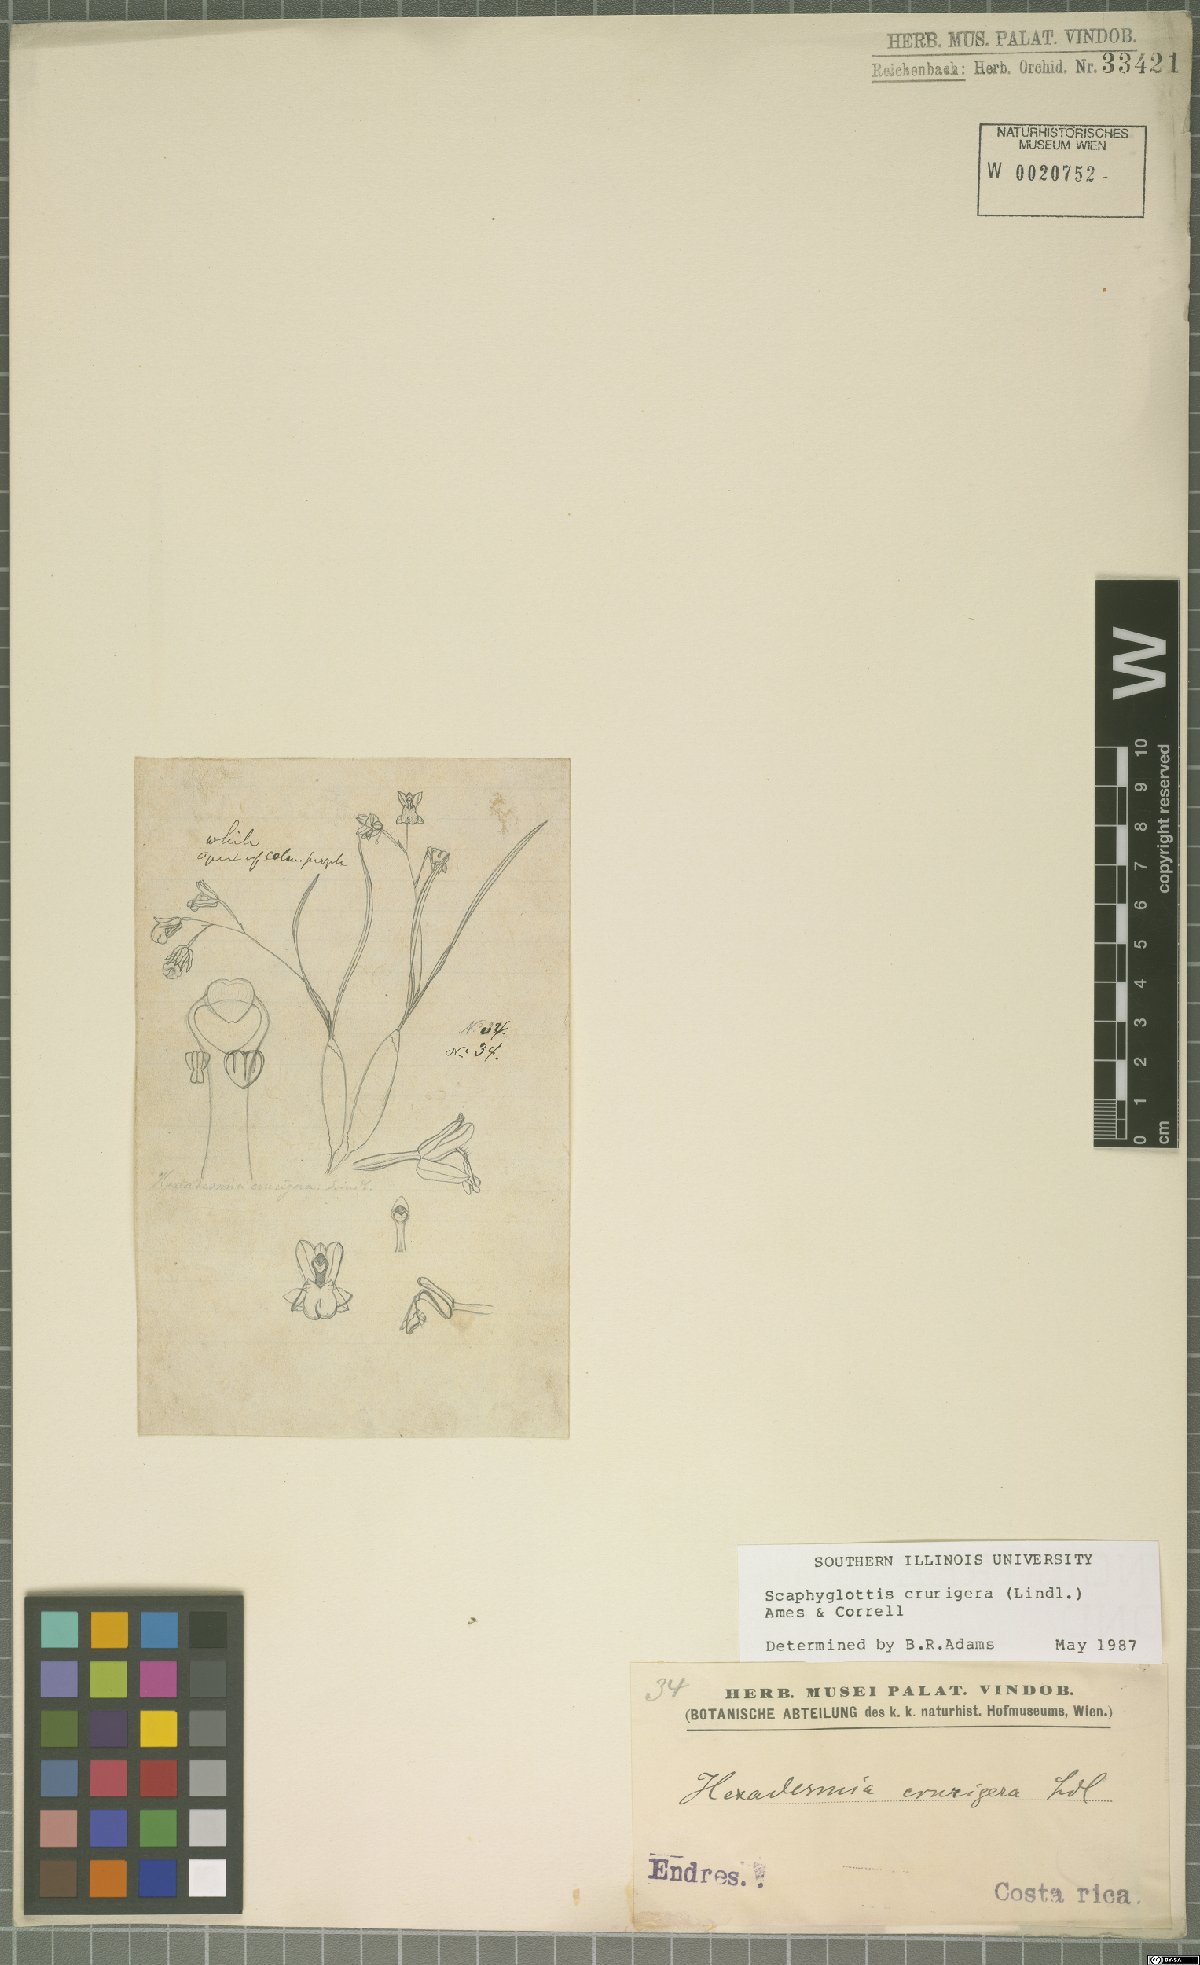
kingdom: Plantae
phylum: Tracheophyta
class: Liliopsida
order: Asparagales
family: Orchidaceae
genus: Scaphyglottis
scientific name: Scaphyglottis crurigera
